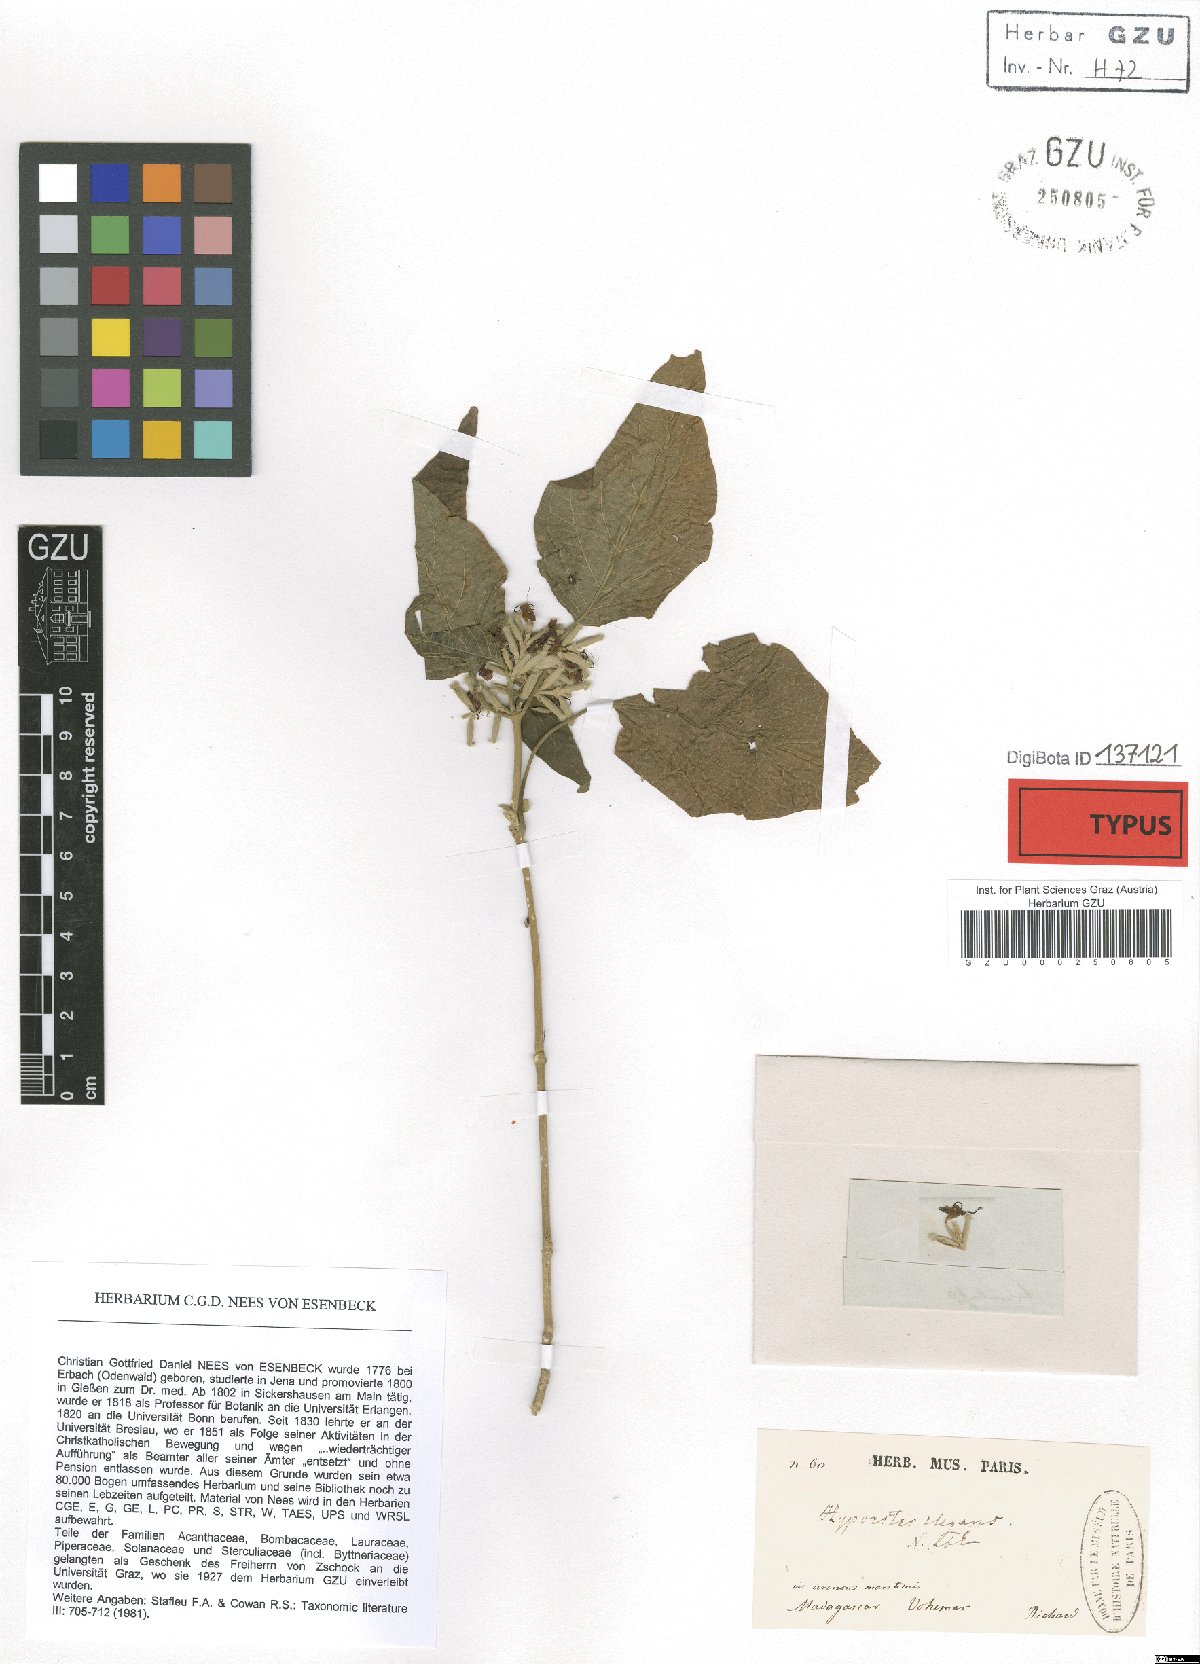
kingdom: Plantae
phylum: Tracheophyta
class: Magnoliopsida
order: Lamiales
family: Acanthaceae
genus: Hypoestes
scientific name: Hypoestes elegans
